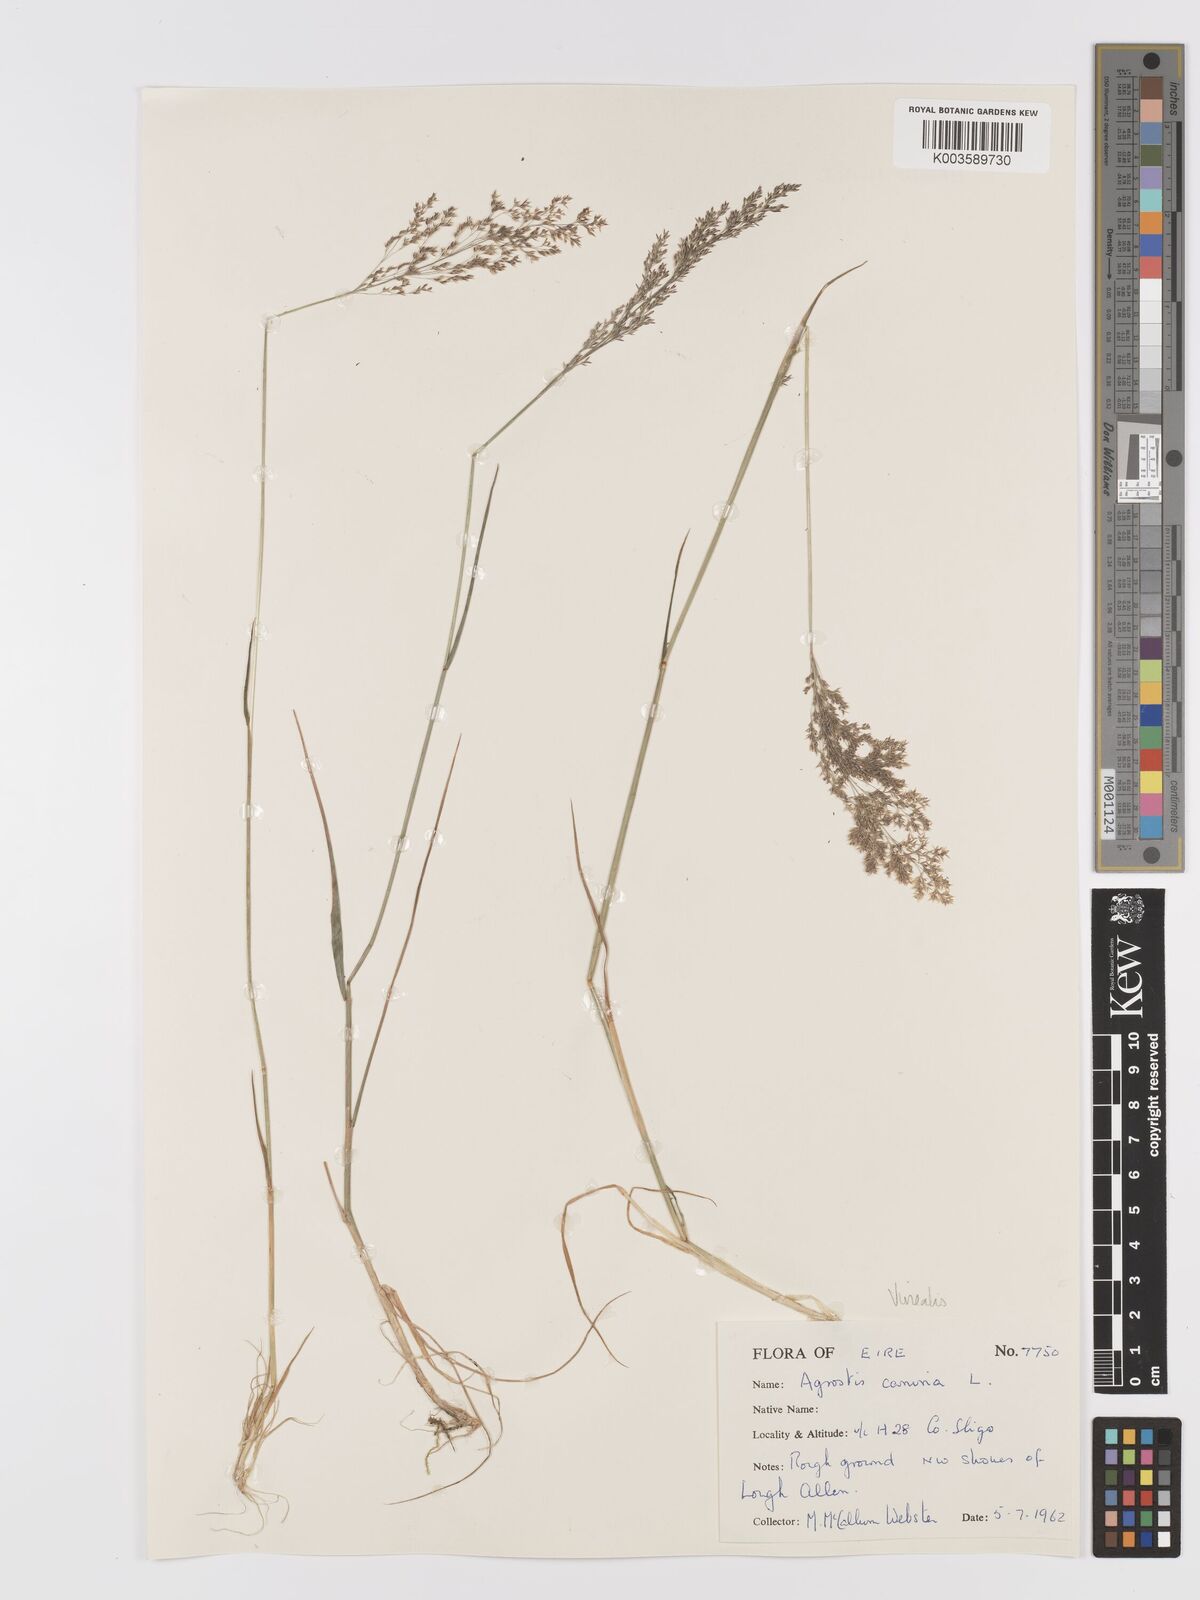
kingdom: Plantae
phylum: Tracheophyta
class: Liliopsida
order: Poales
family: Poaceae
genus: Agrostis
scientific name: Agrostis
